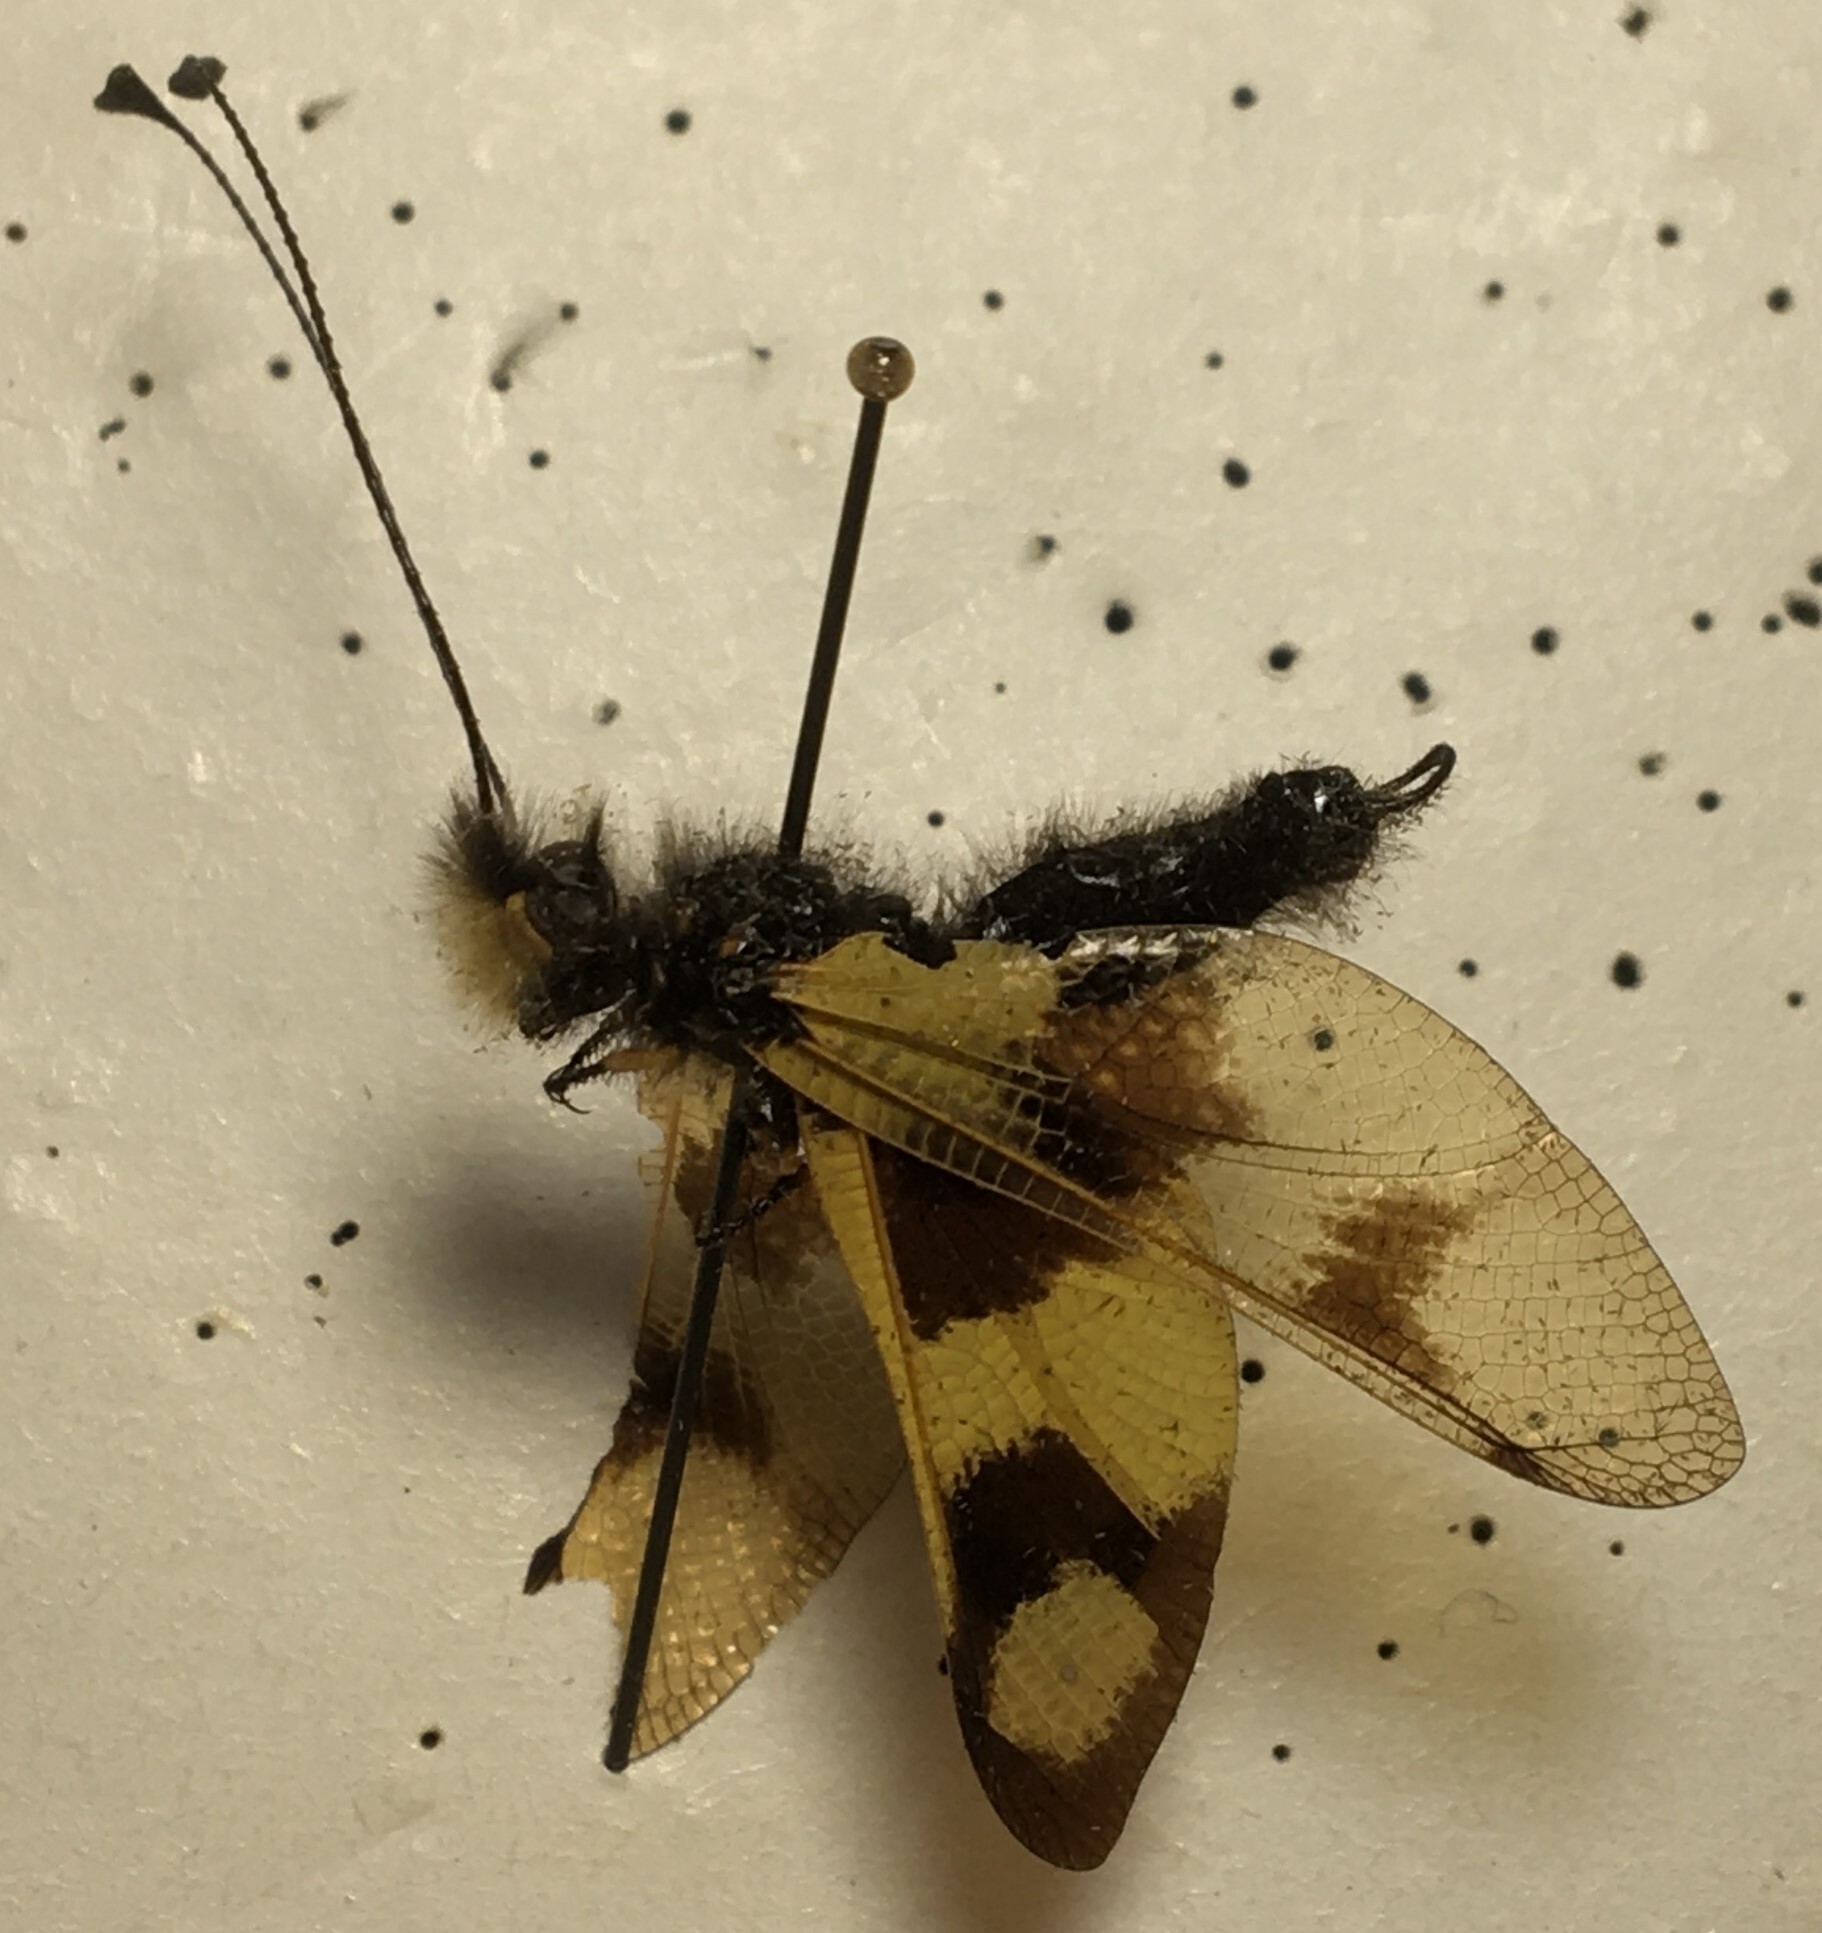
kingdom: Animalia
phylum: Arthropoda
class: Insecta
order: Neuroptera
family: Ascalaphidae
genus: Libelloides
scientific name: Libelloides macaronius
